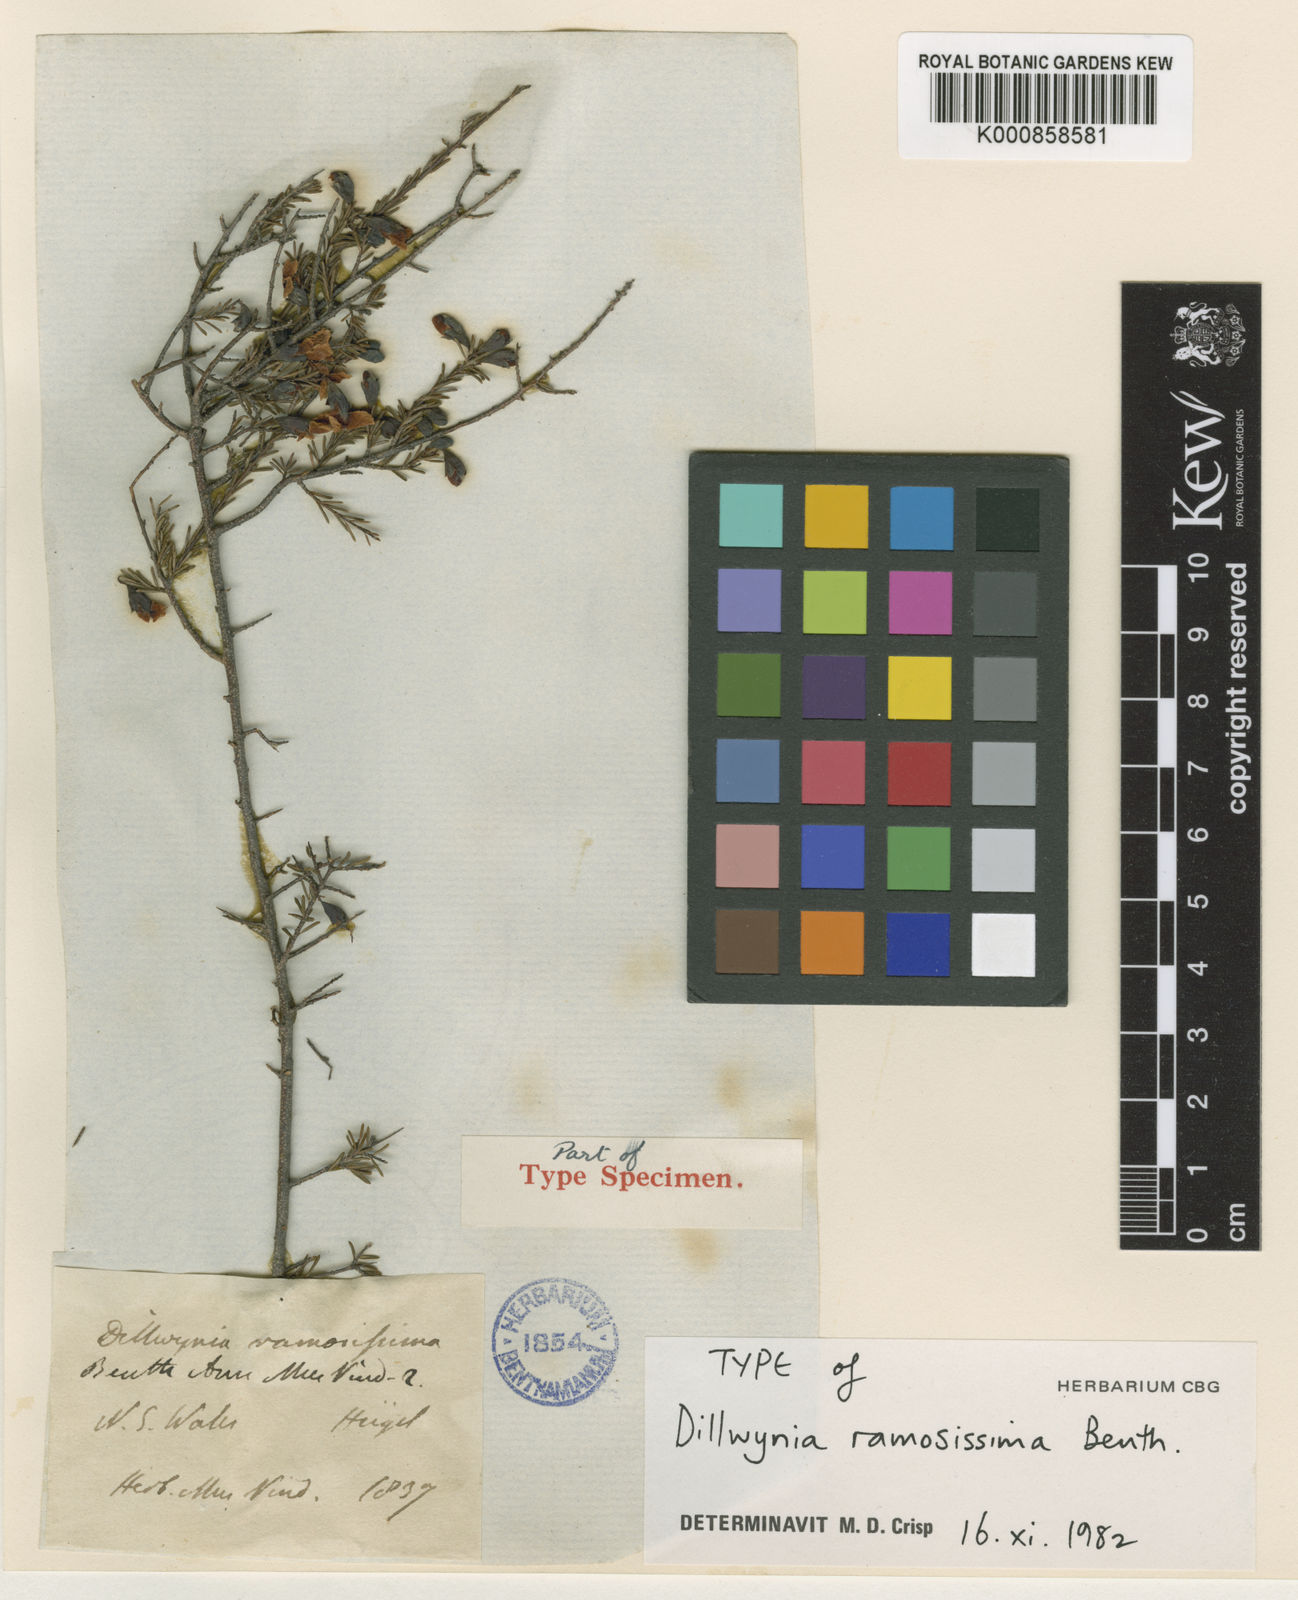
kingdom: Plantae
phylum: Tracheophyta
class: Magnoliopsida
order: Fabales
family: Fabaceae
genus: Dillwynia
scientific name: Dillwynia ramosissima
